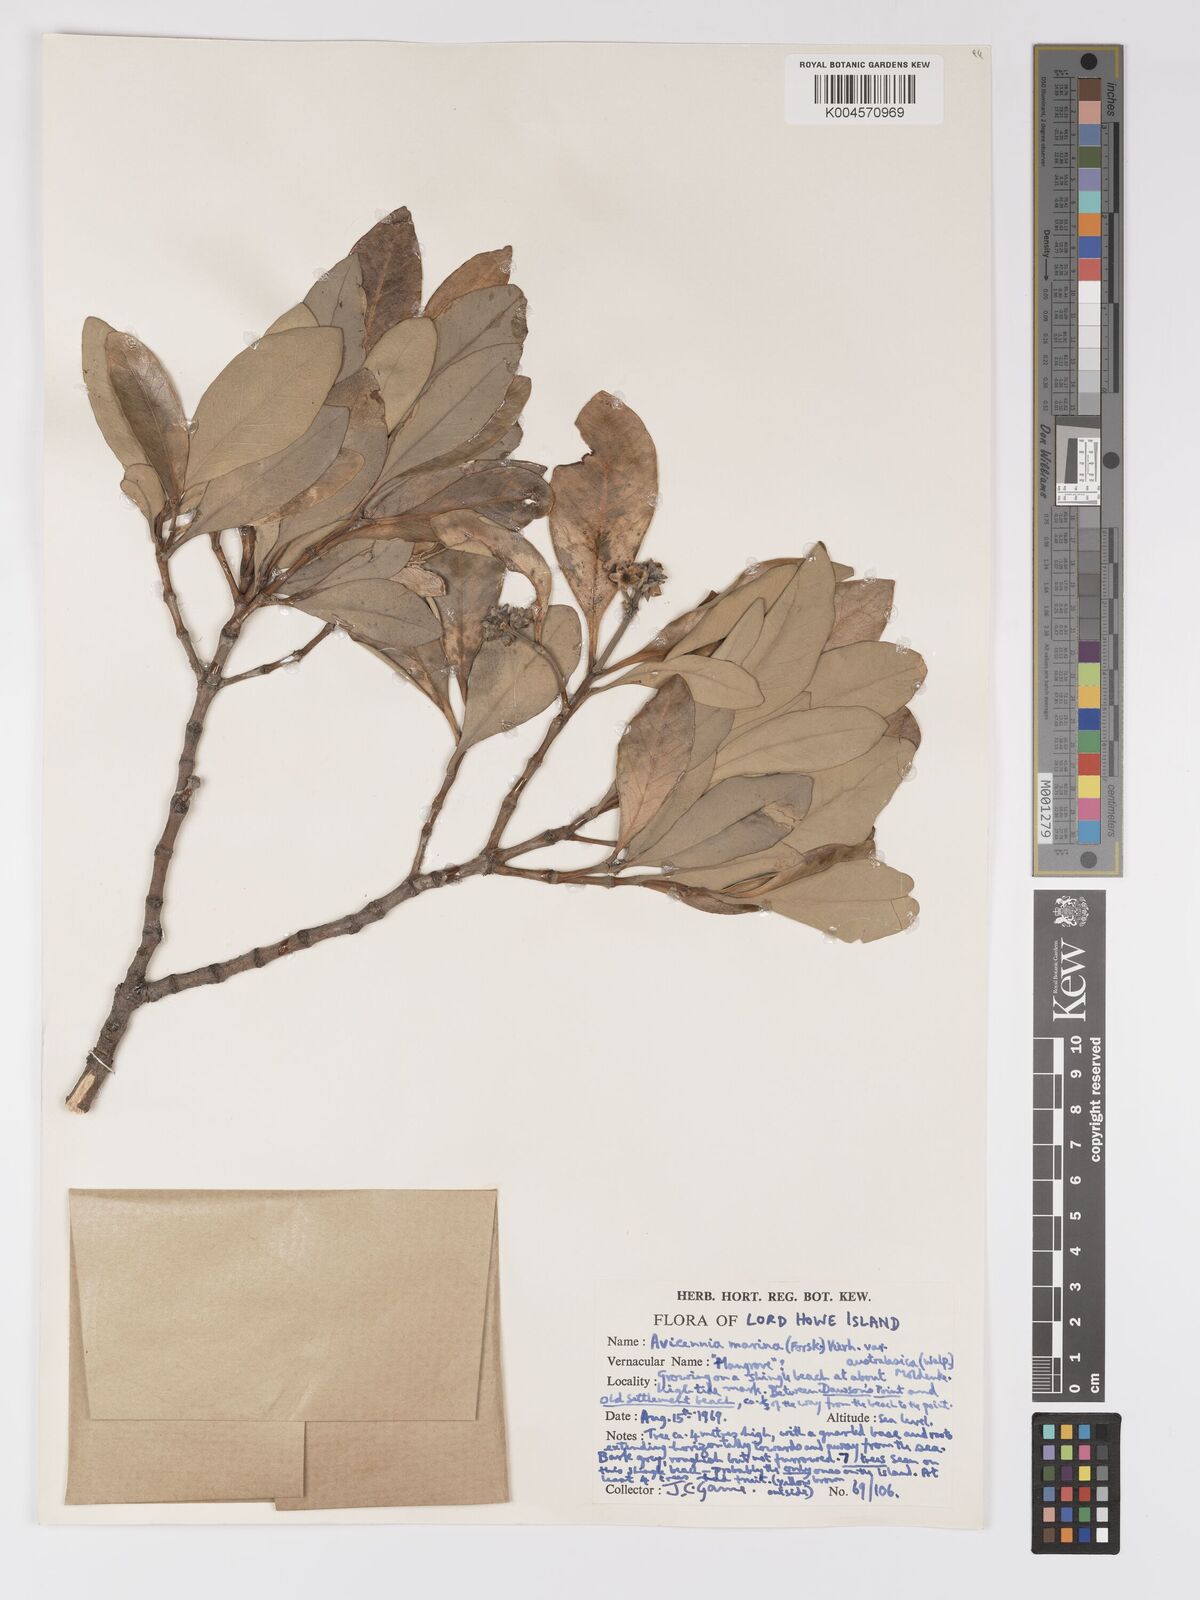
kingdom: Plantae
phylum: Tracheophyta
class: Magnoliopsida
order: Lamiales
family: Acanthaceae
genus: Avicennia
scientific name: Avicennia
